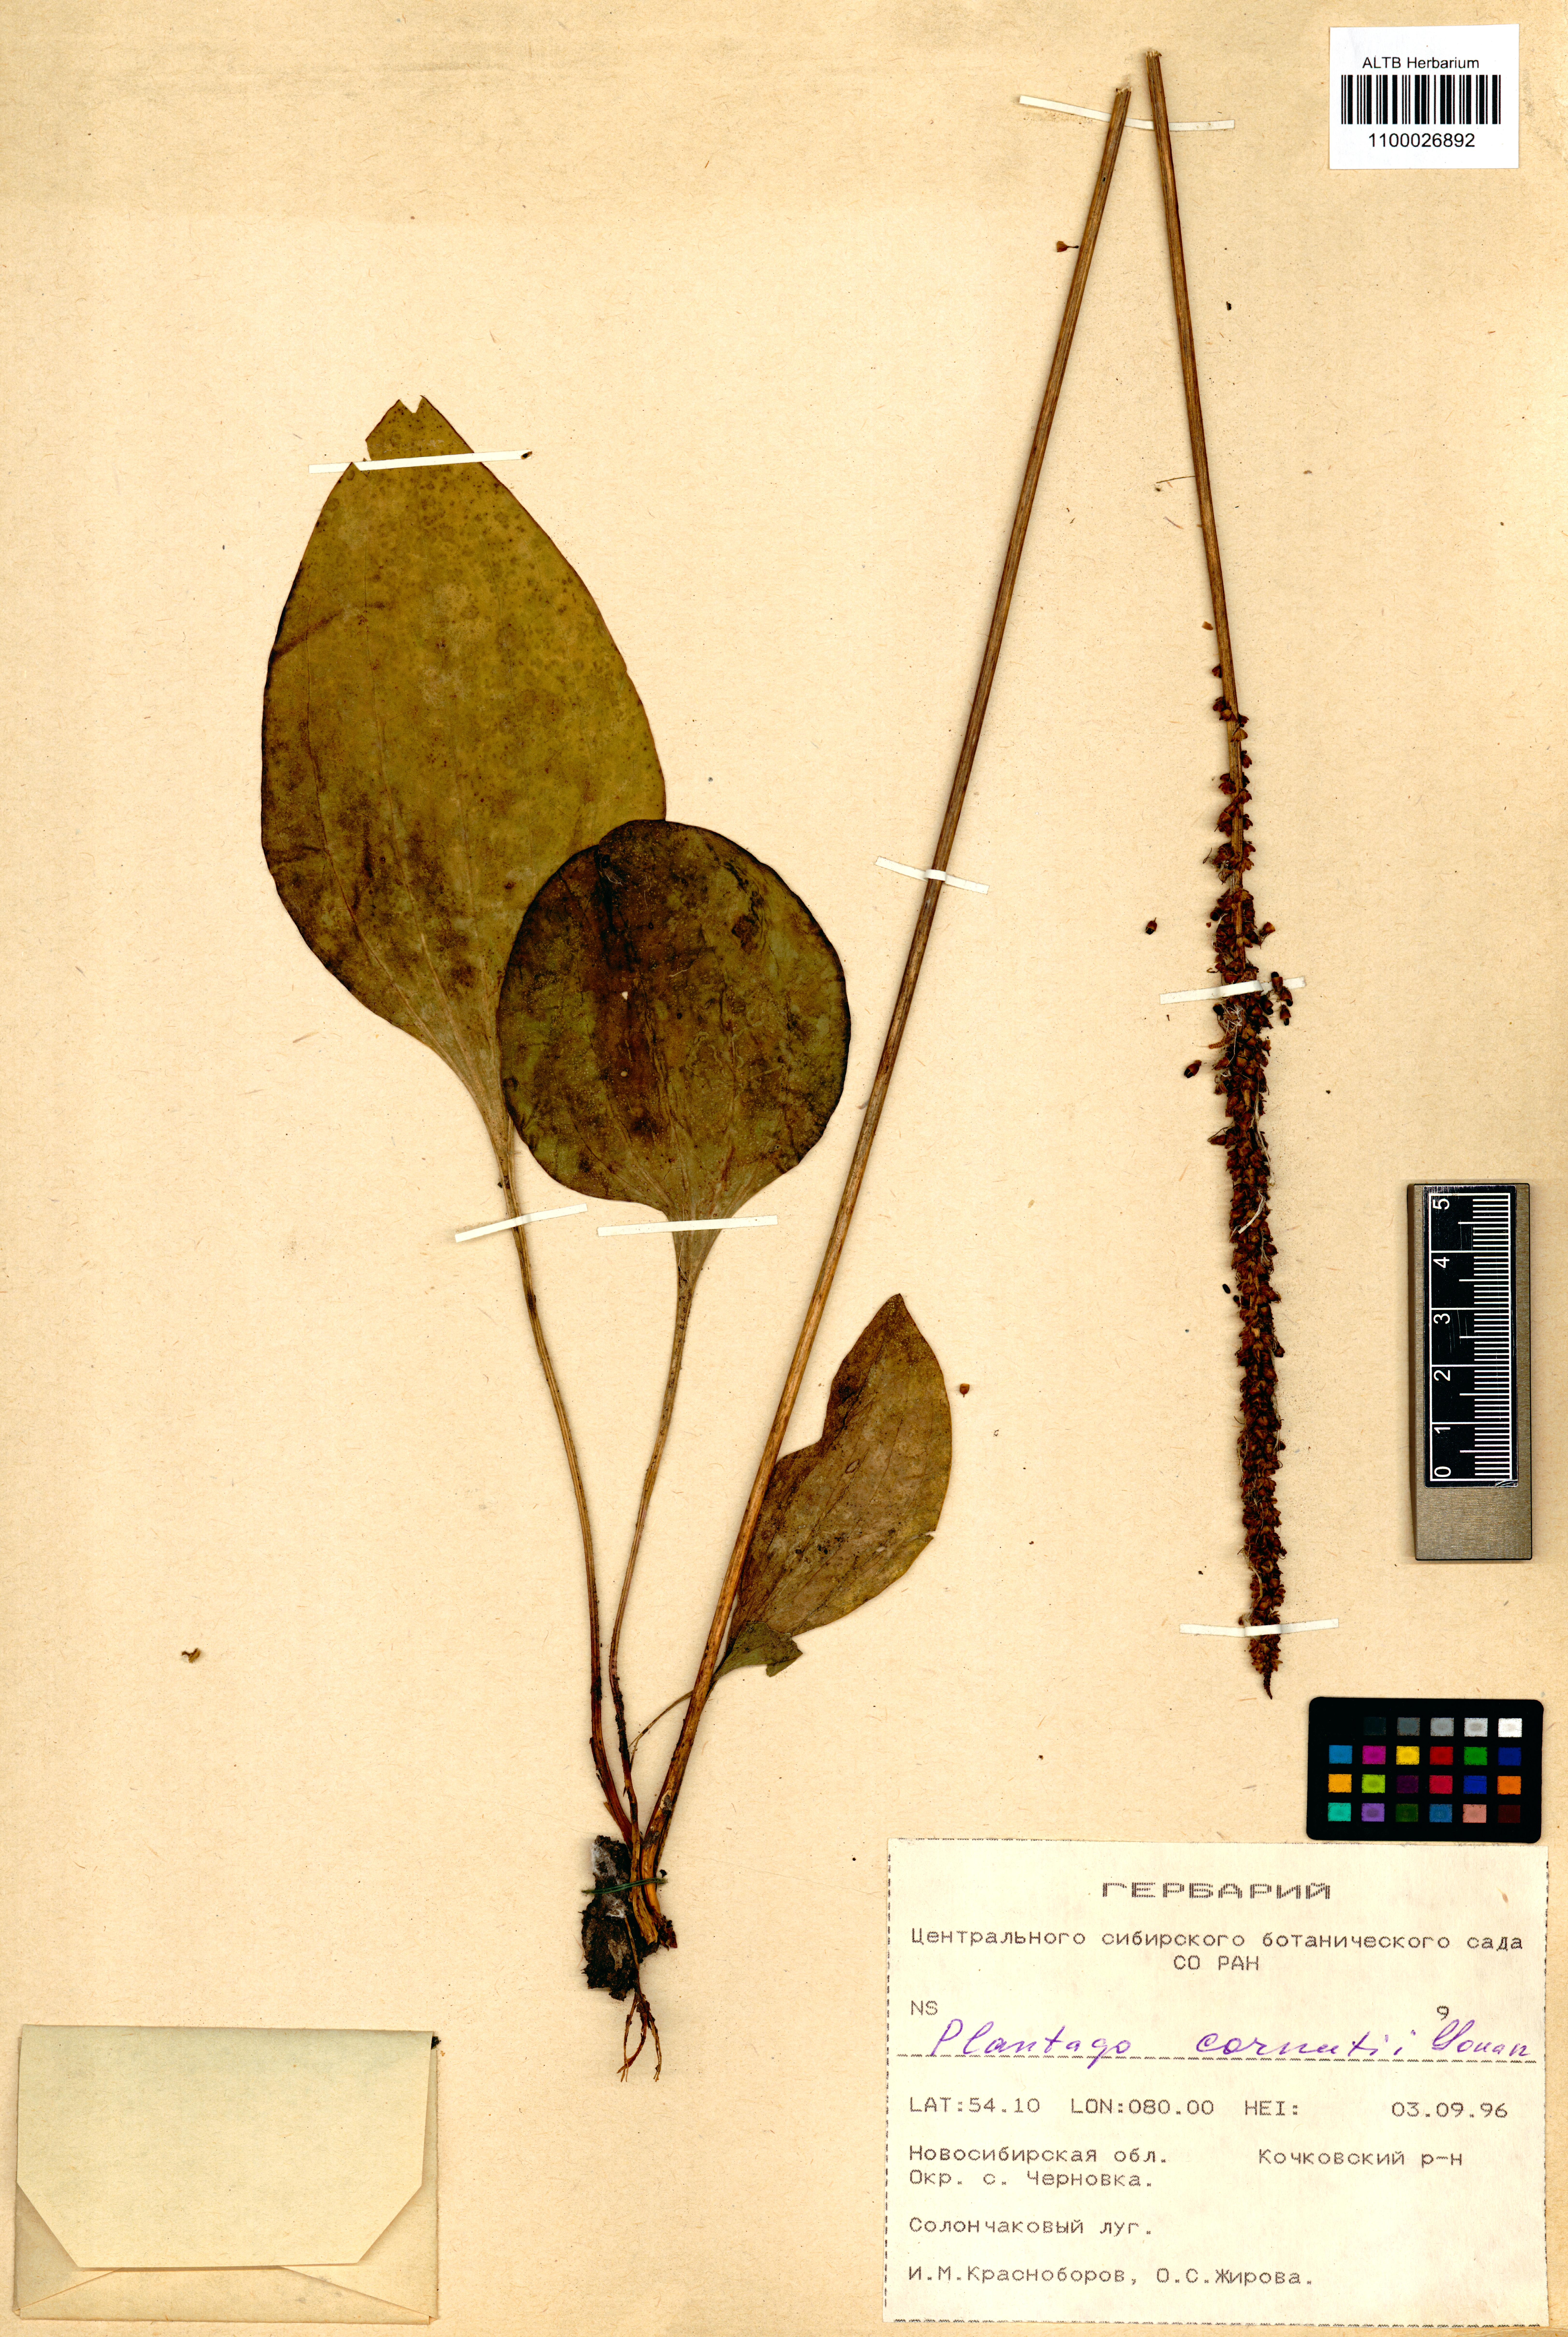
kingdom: Plantae
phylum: Tracheophyta
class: Magnoliopsida
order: Lamiales
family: Plantaginaceae
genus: Plantago
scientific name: Plantago cornuti
